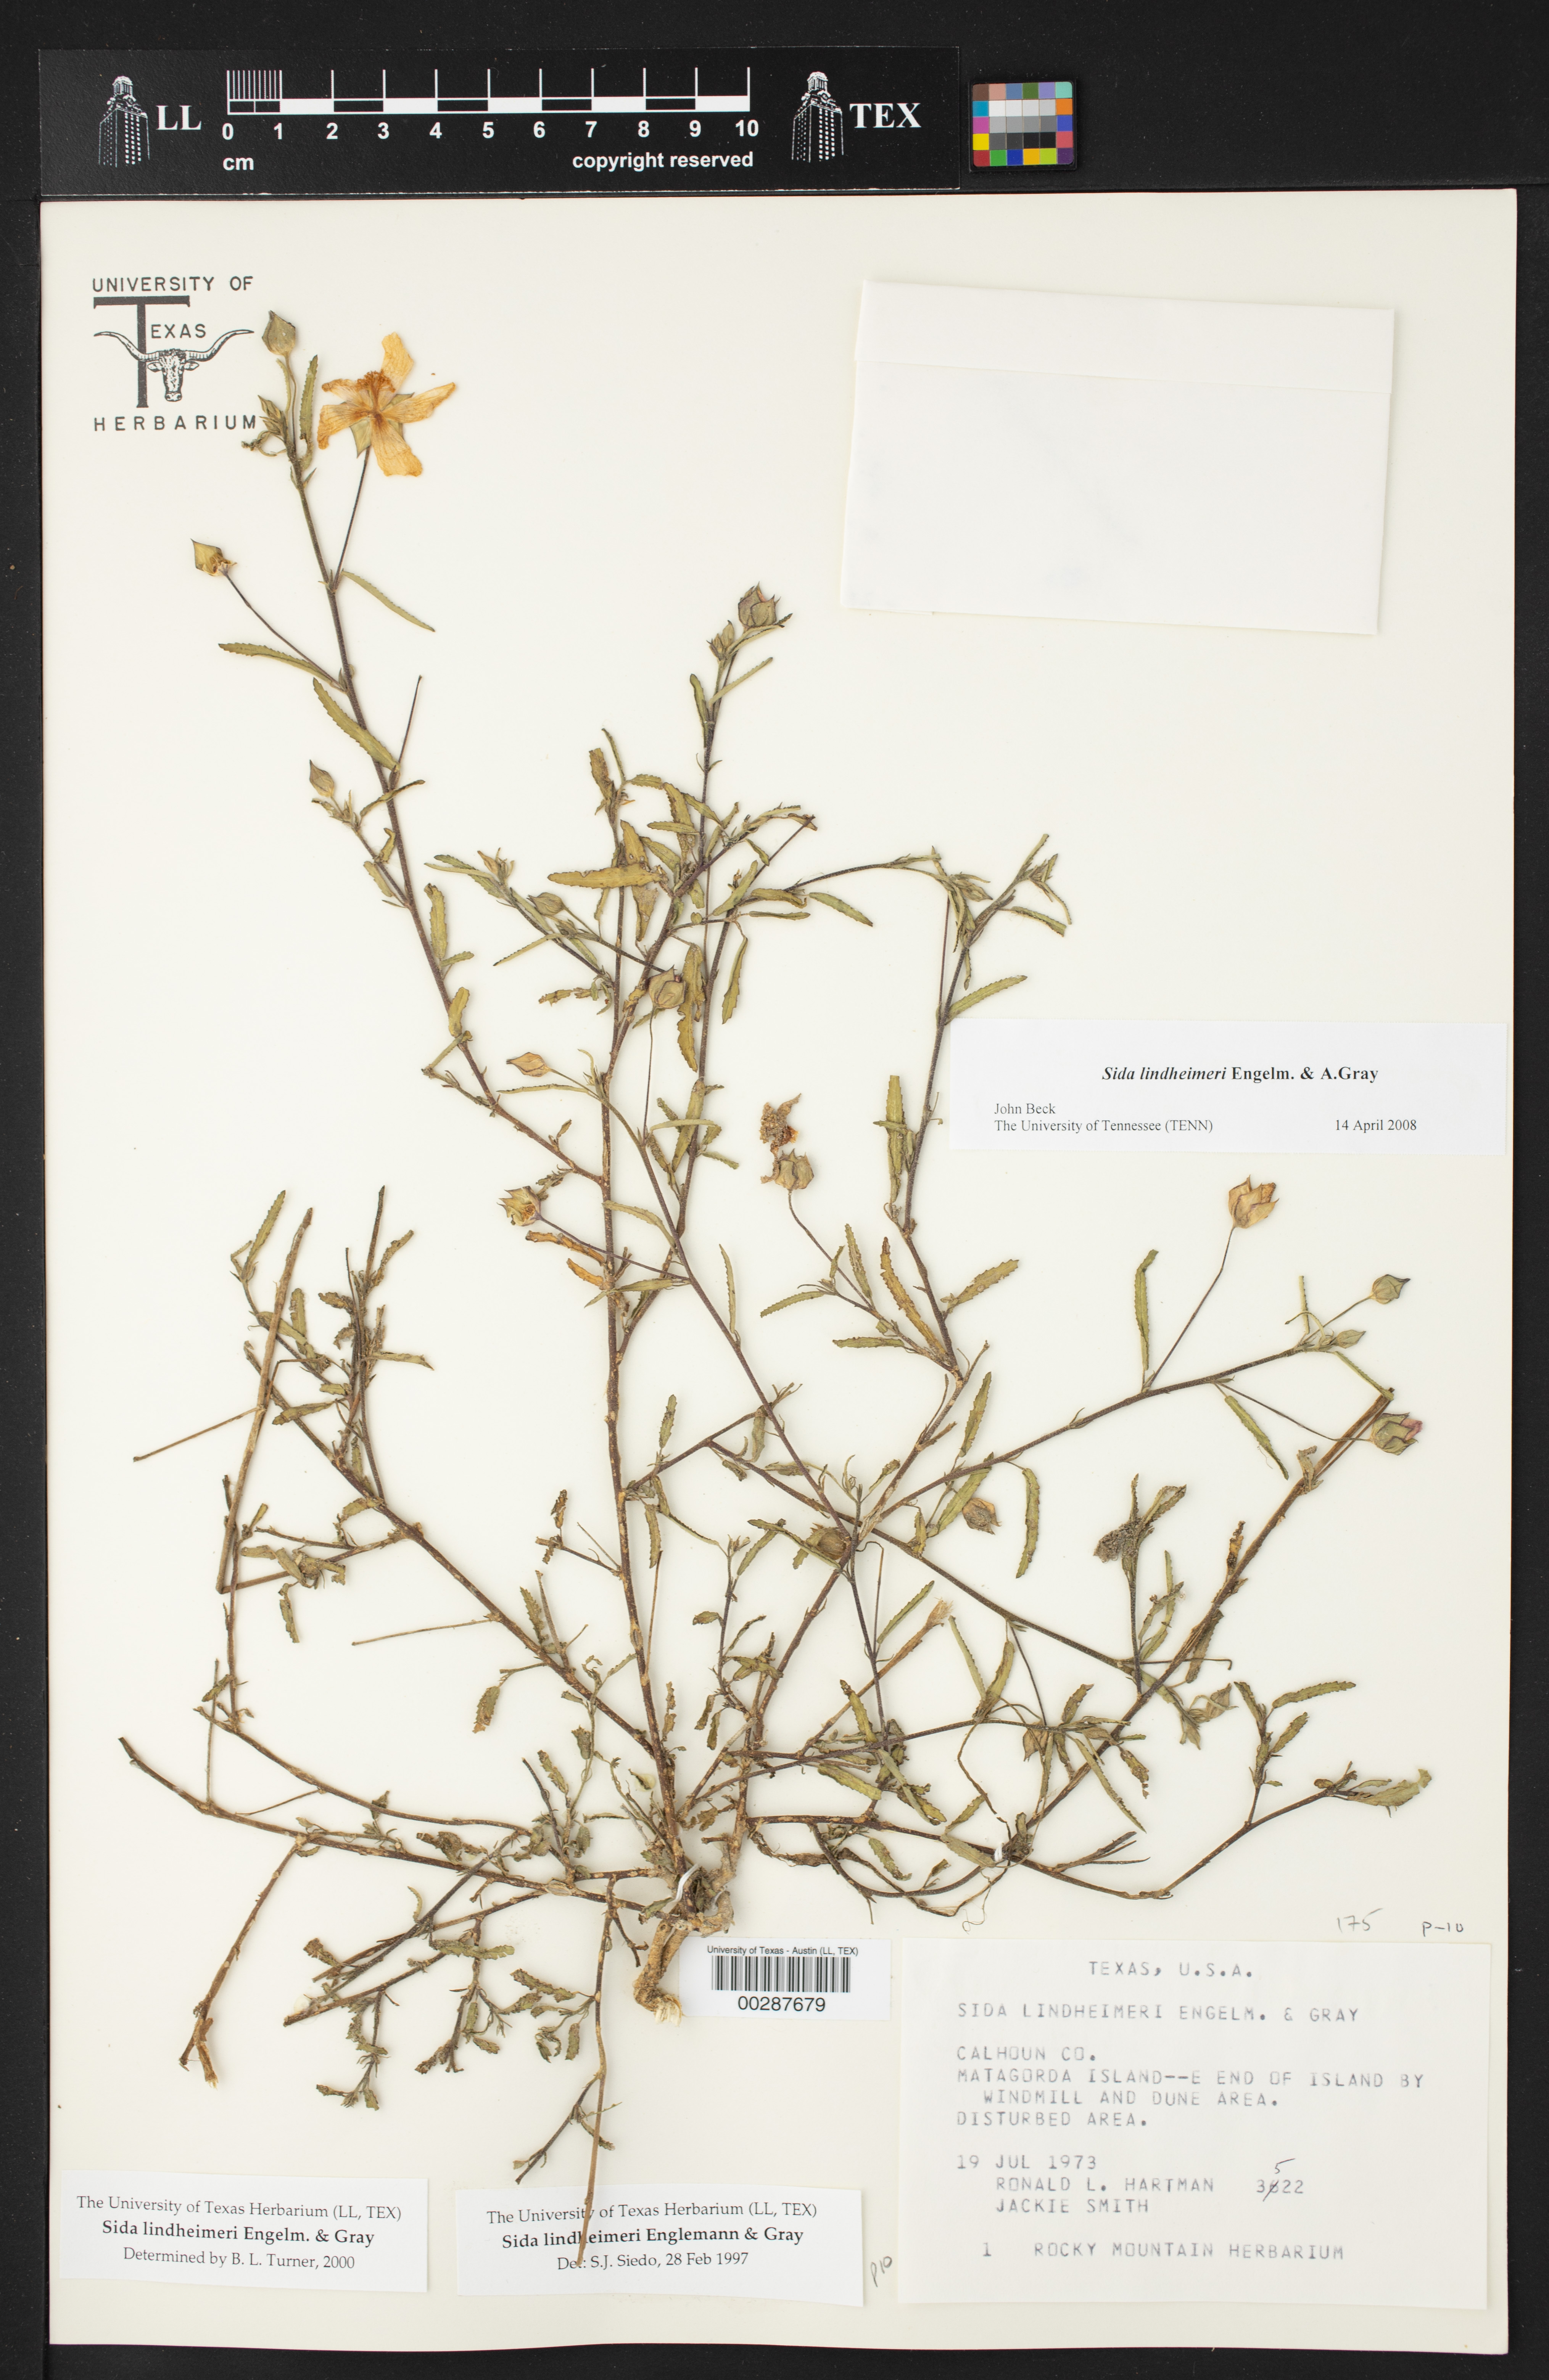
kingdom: Plantae
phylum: Tracheophyta
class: Magnoliopsida
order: Malvales
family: Malvaceae
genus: Sida
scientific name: Sida lindheimeri
